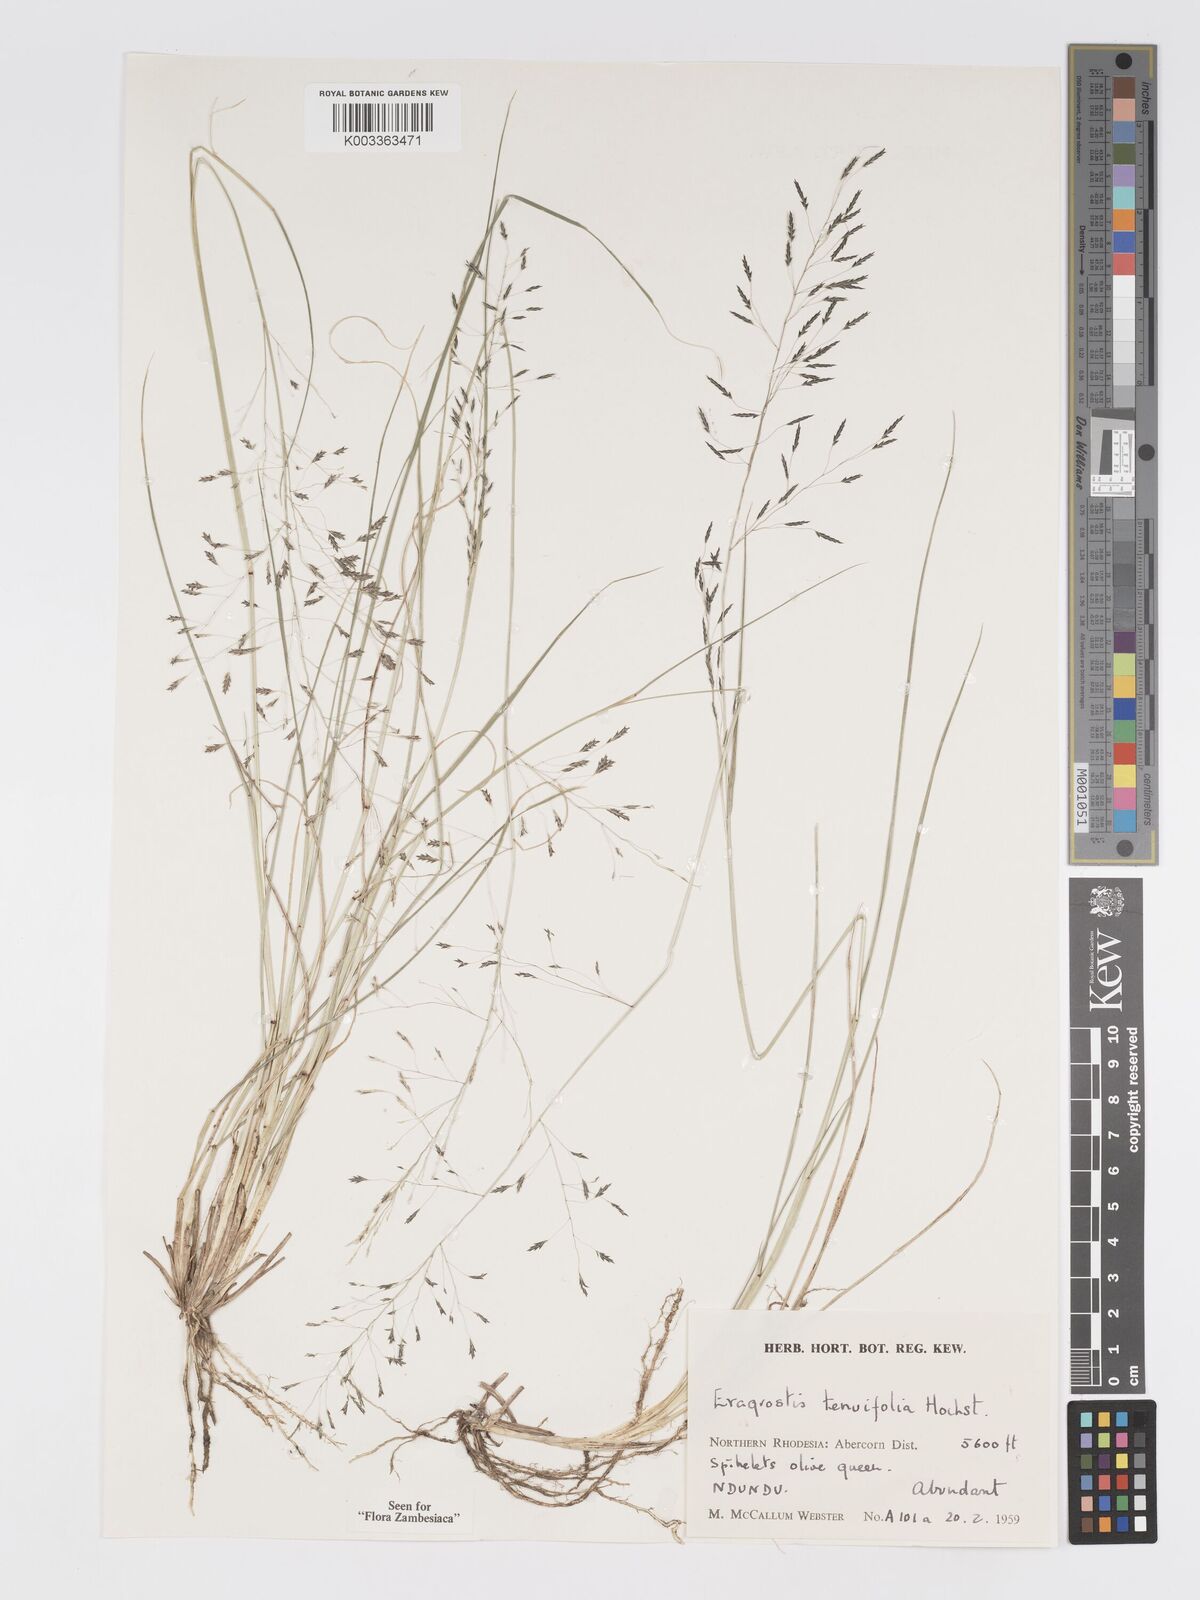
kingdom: Plantae
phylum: Tracheophyta
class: Liliopsida
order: Poales
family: Poaceae
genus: Eragrostis
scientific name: Eragrostis tenuifolia
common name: Elastic grass
